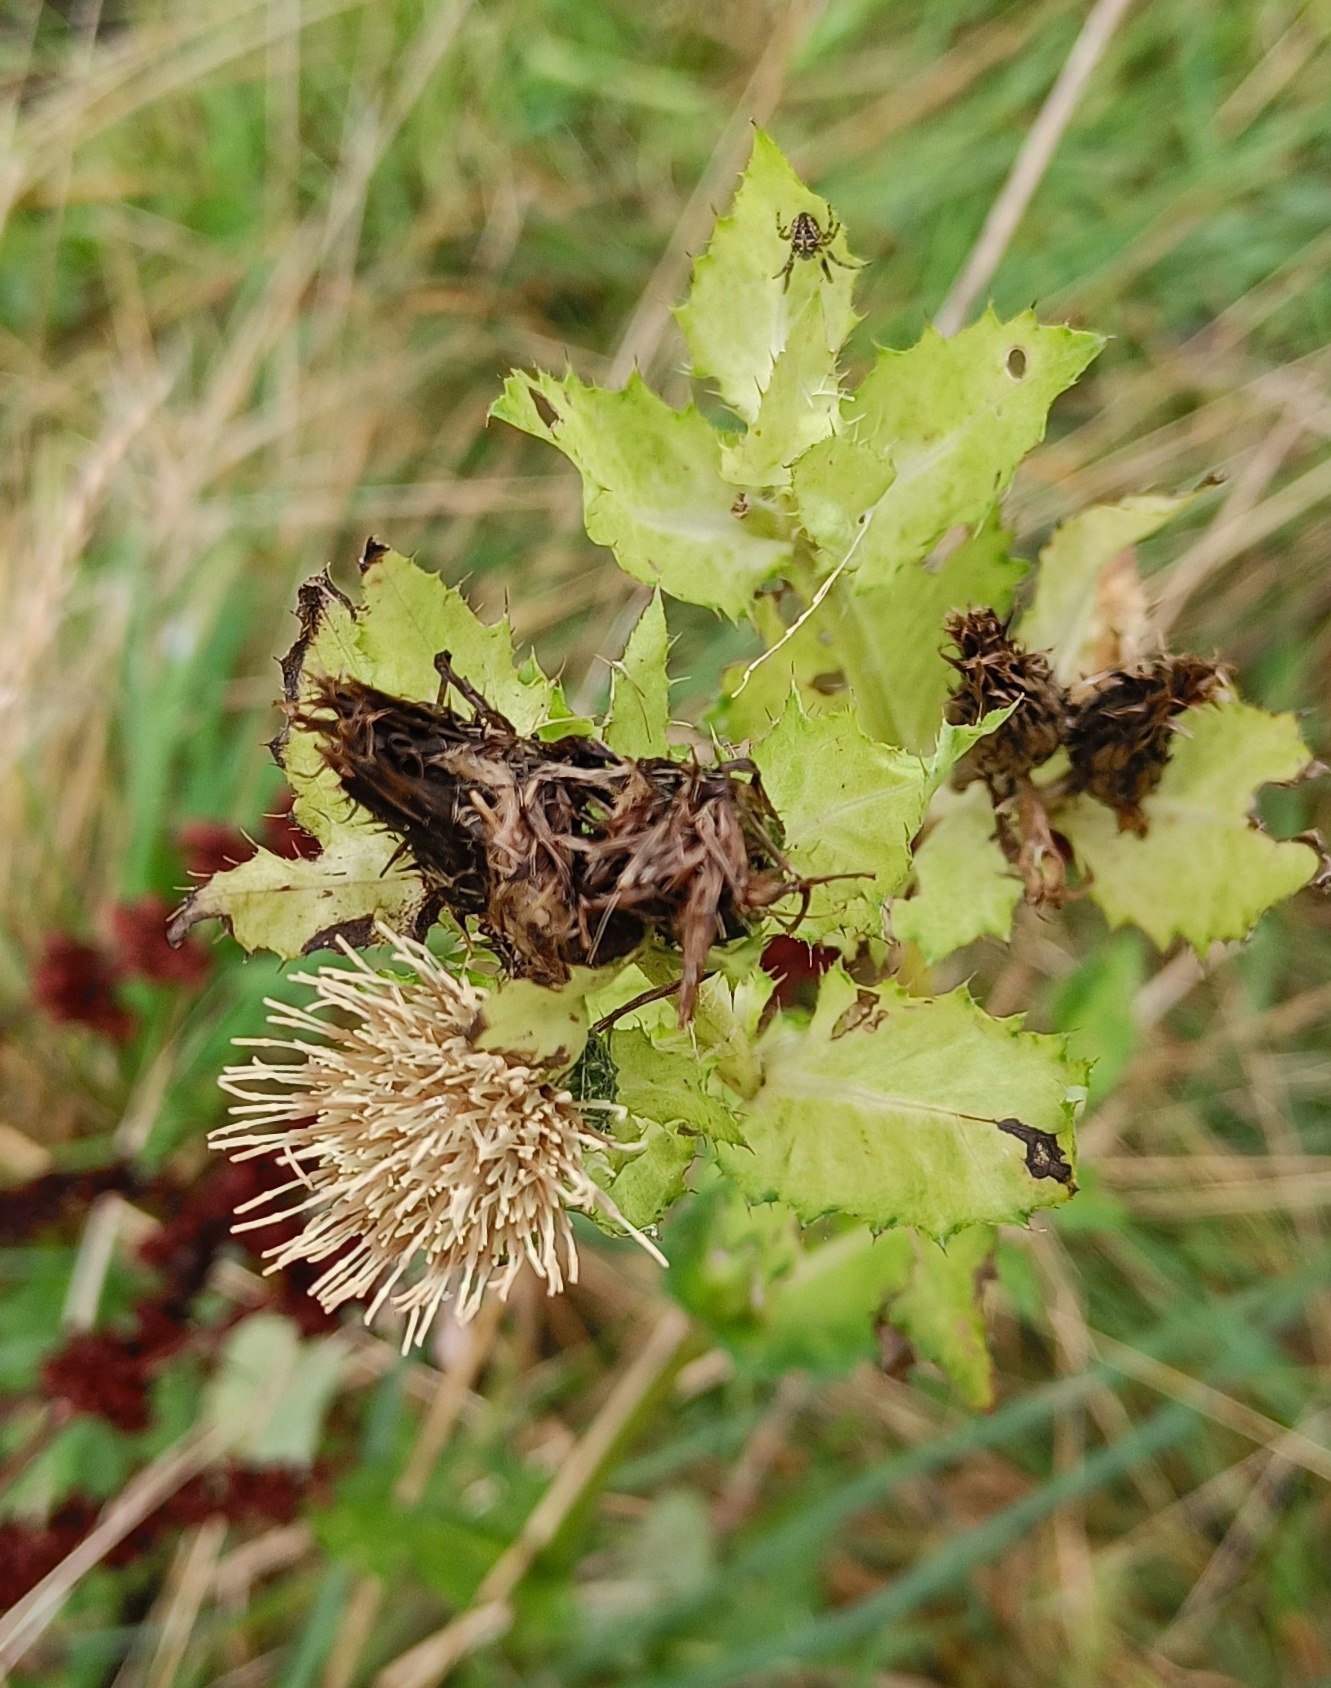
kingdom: Plantae
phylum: Tracheophyta
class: Magnoliopsida
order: Asterales
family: Asteraceae
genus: Cirsium
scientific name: Cirsium oleraceum
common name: Kål-tidsel
